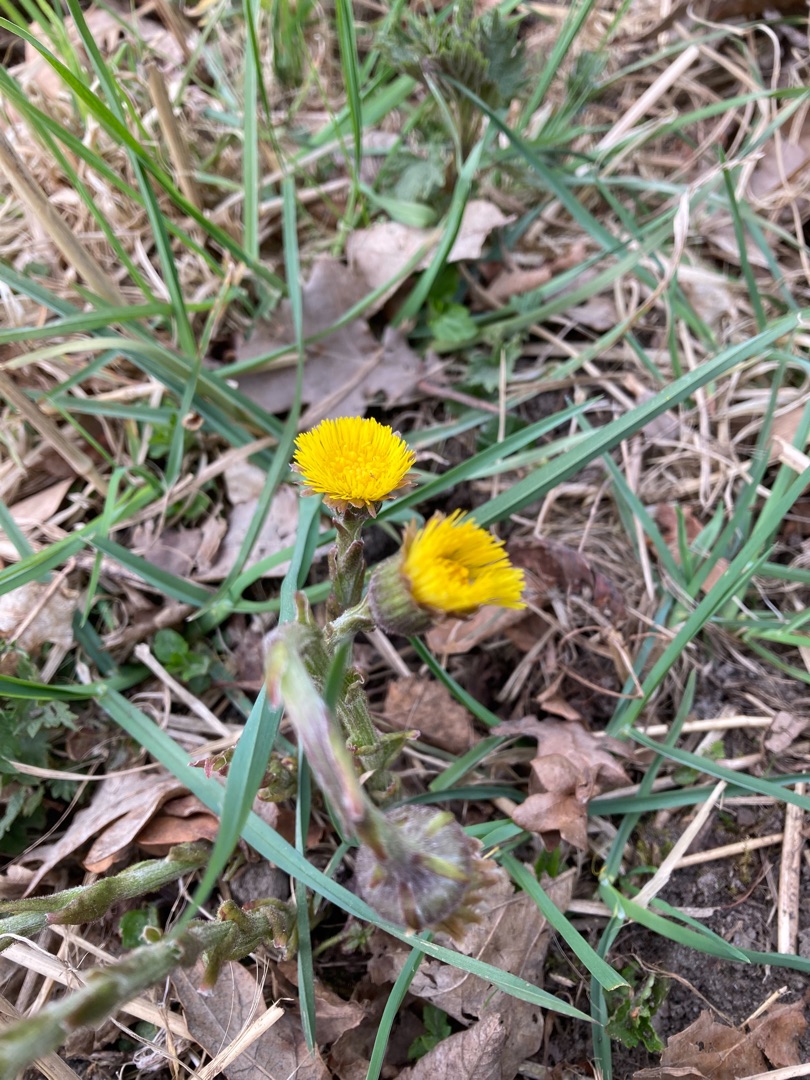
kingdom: Plantae
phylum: Tracheophyta
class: Magnoliopsida
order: Asterales
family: Asteraceae
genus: Tussilago
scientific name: Tussilago farfara
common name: Følfod
